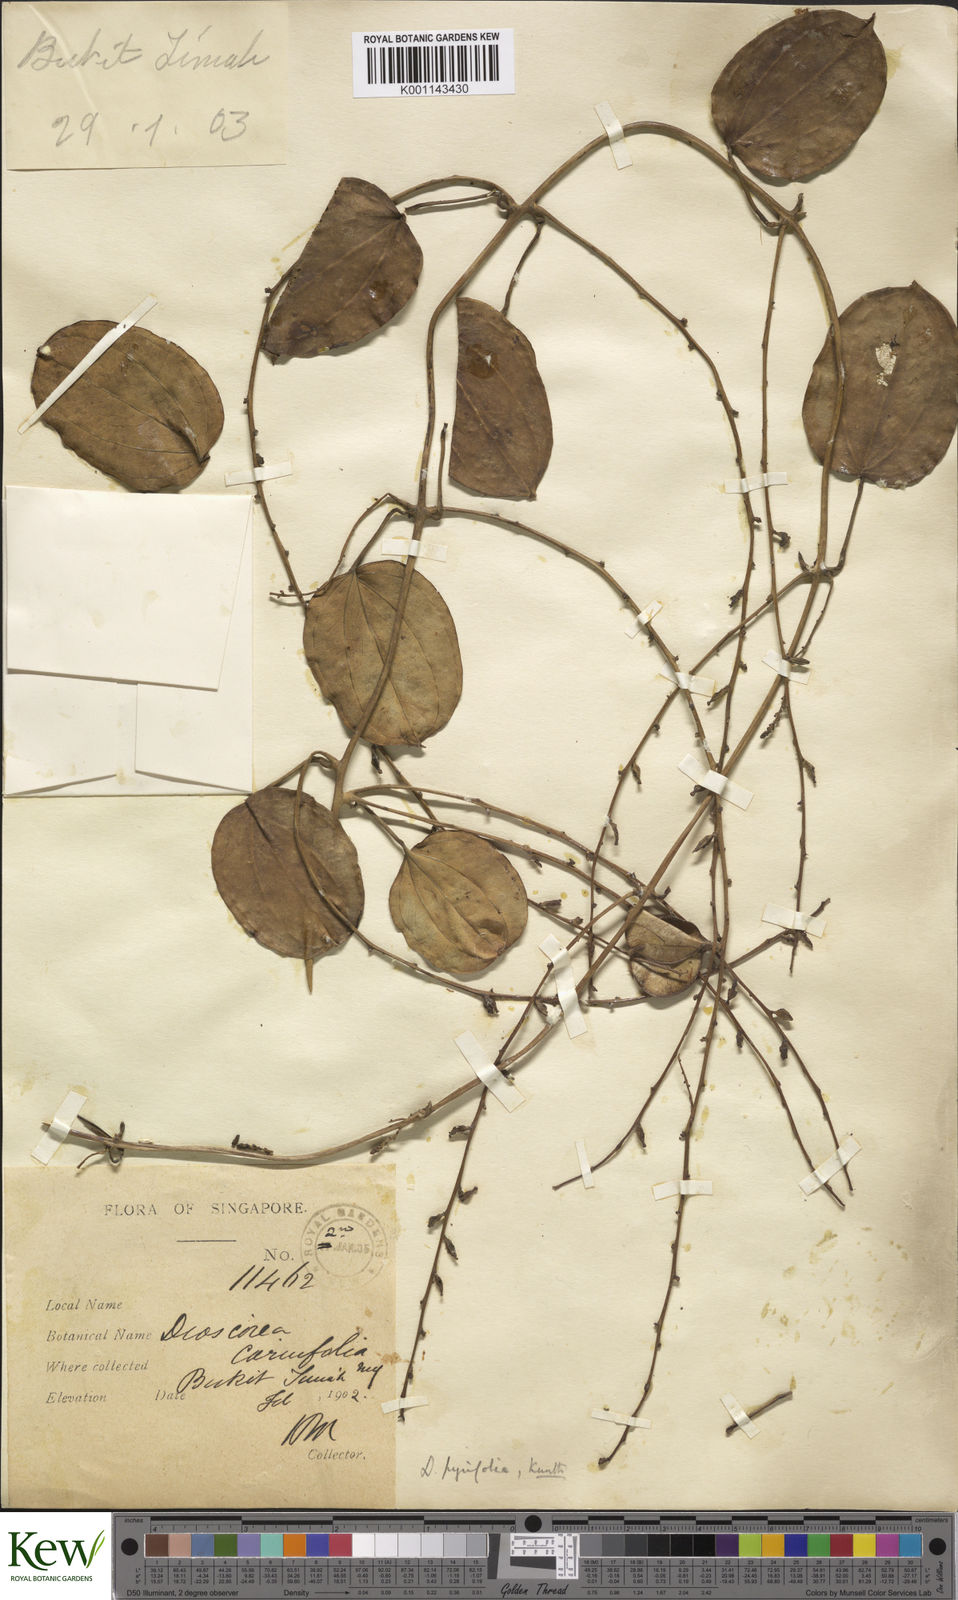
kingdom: Plantae
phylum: Tracheophyta
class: Liliopsida
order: Dioscoreales
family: Dioscoreaceae
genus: Dioscorea
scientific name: Dioscorea pyrifolia
